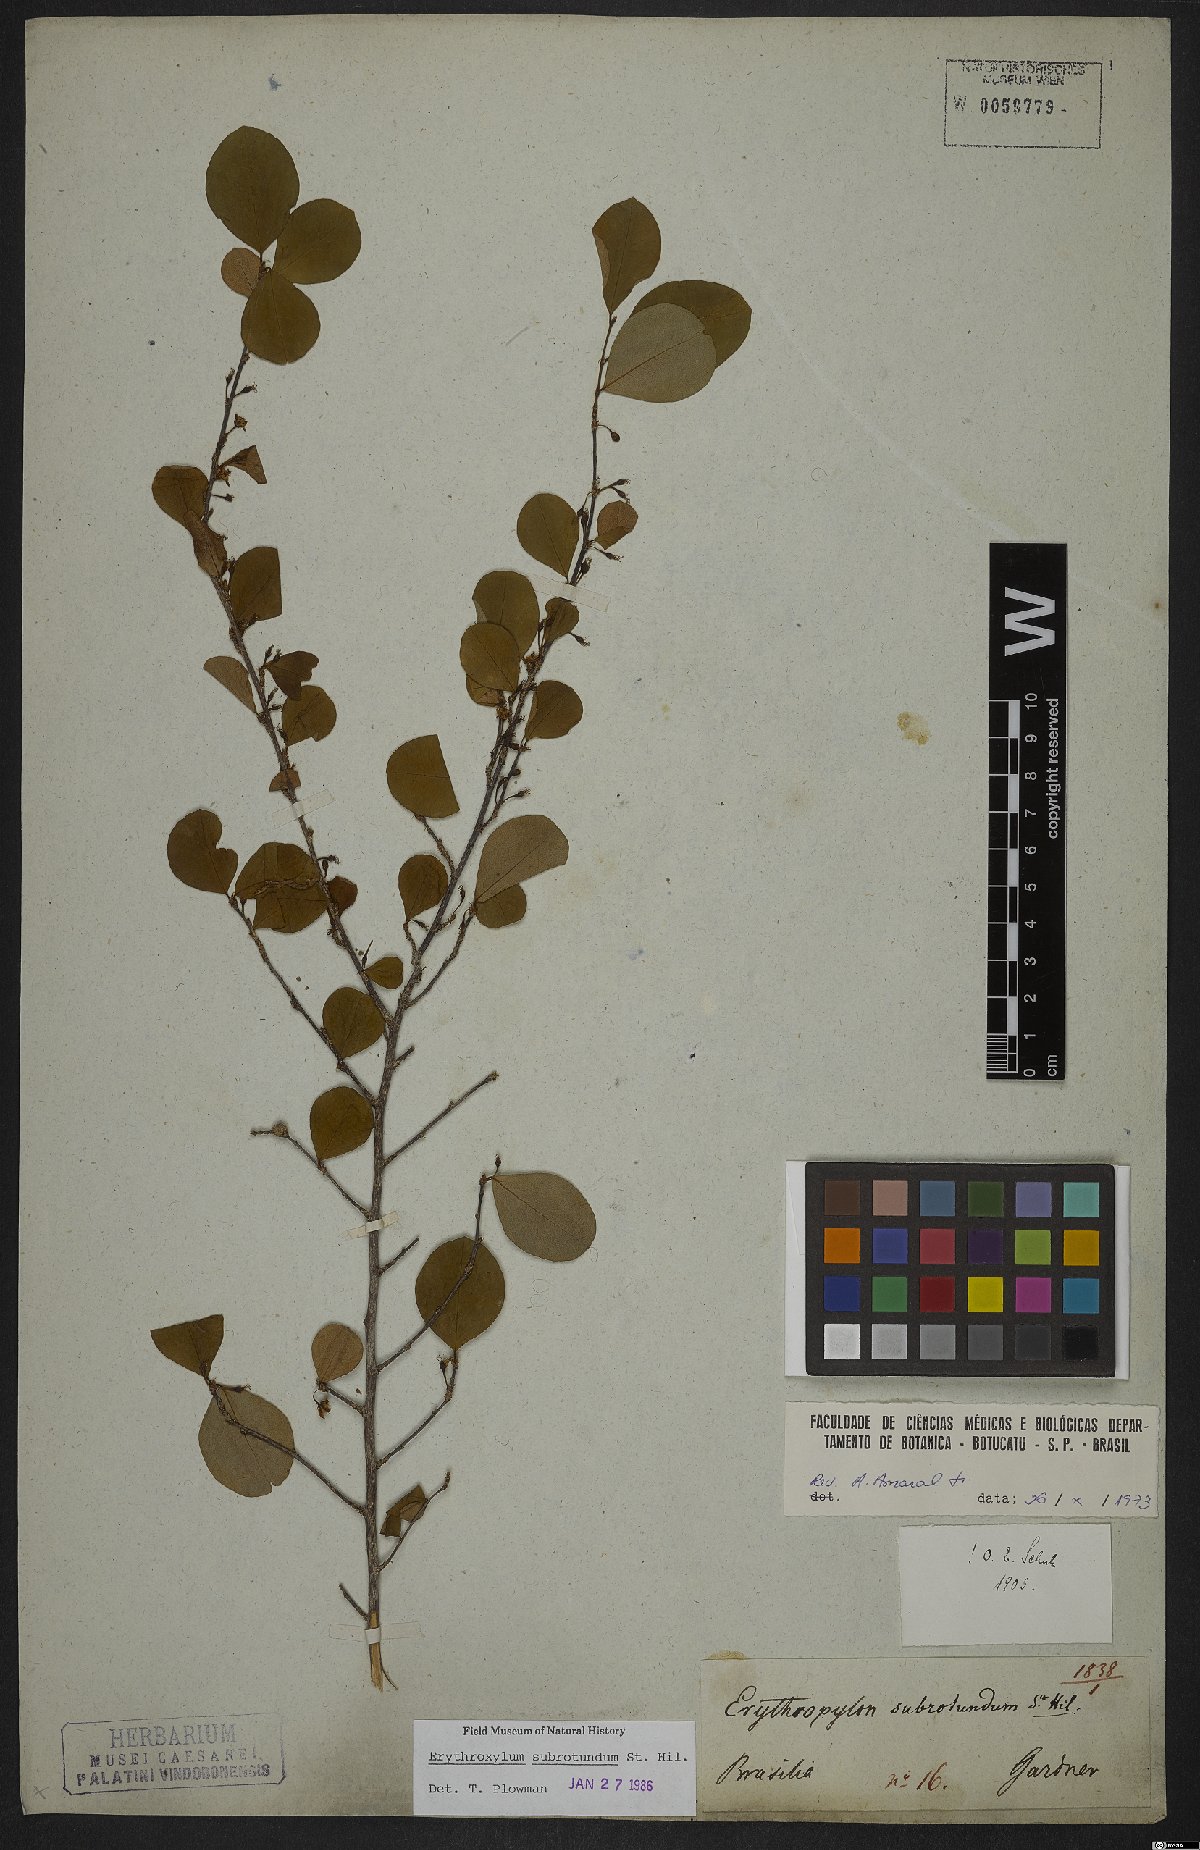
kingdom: Plantae
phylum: Tracheophyta
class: Magnoliopsida
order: Malpighiales
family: Erythroxylaceae
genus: Erythroxylum
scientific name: Erythroxylum subrotundum
